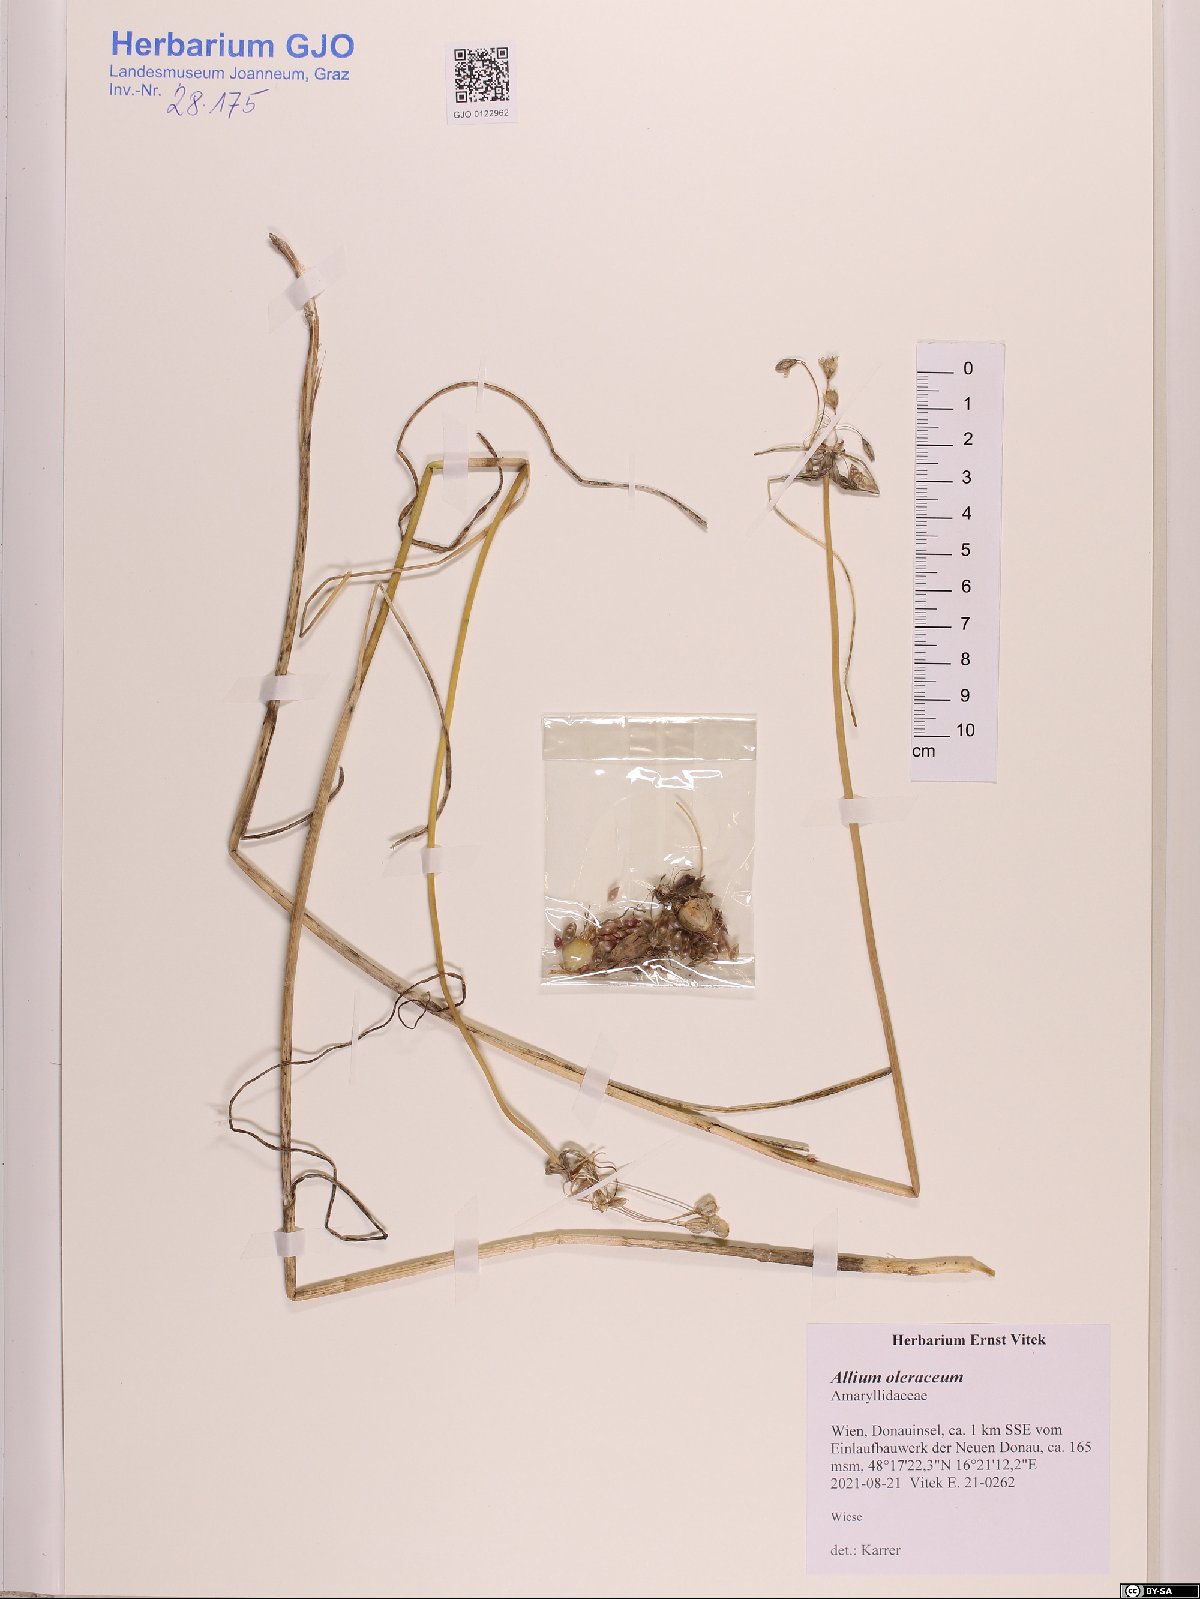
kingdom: Plantae
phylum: Tracheophyta
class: Liliopsida
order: Asparagales
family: Amaryllidaceae
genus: Allium
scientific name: Allium oleraceum
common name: Field garlic
